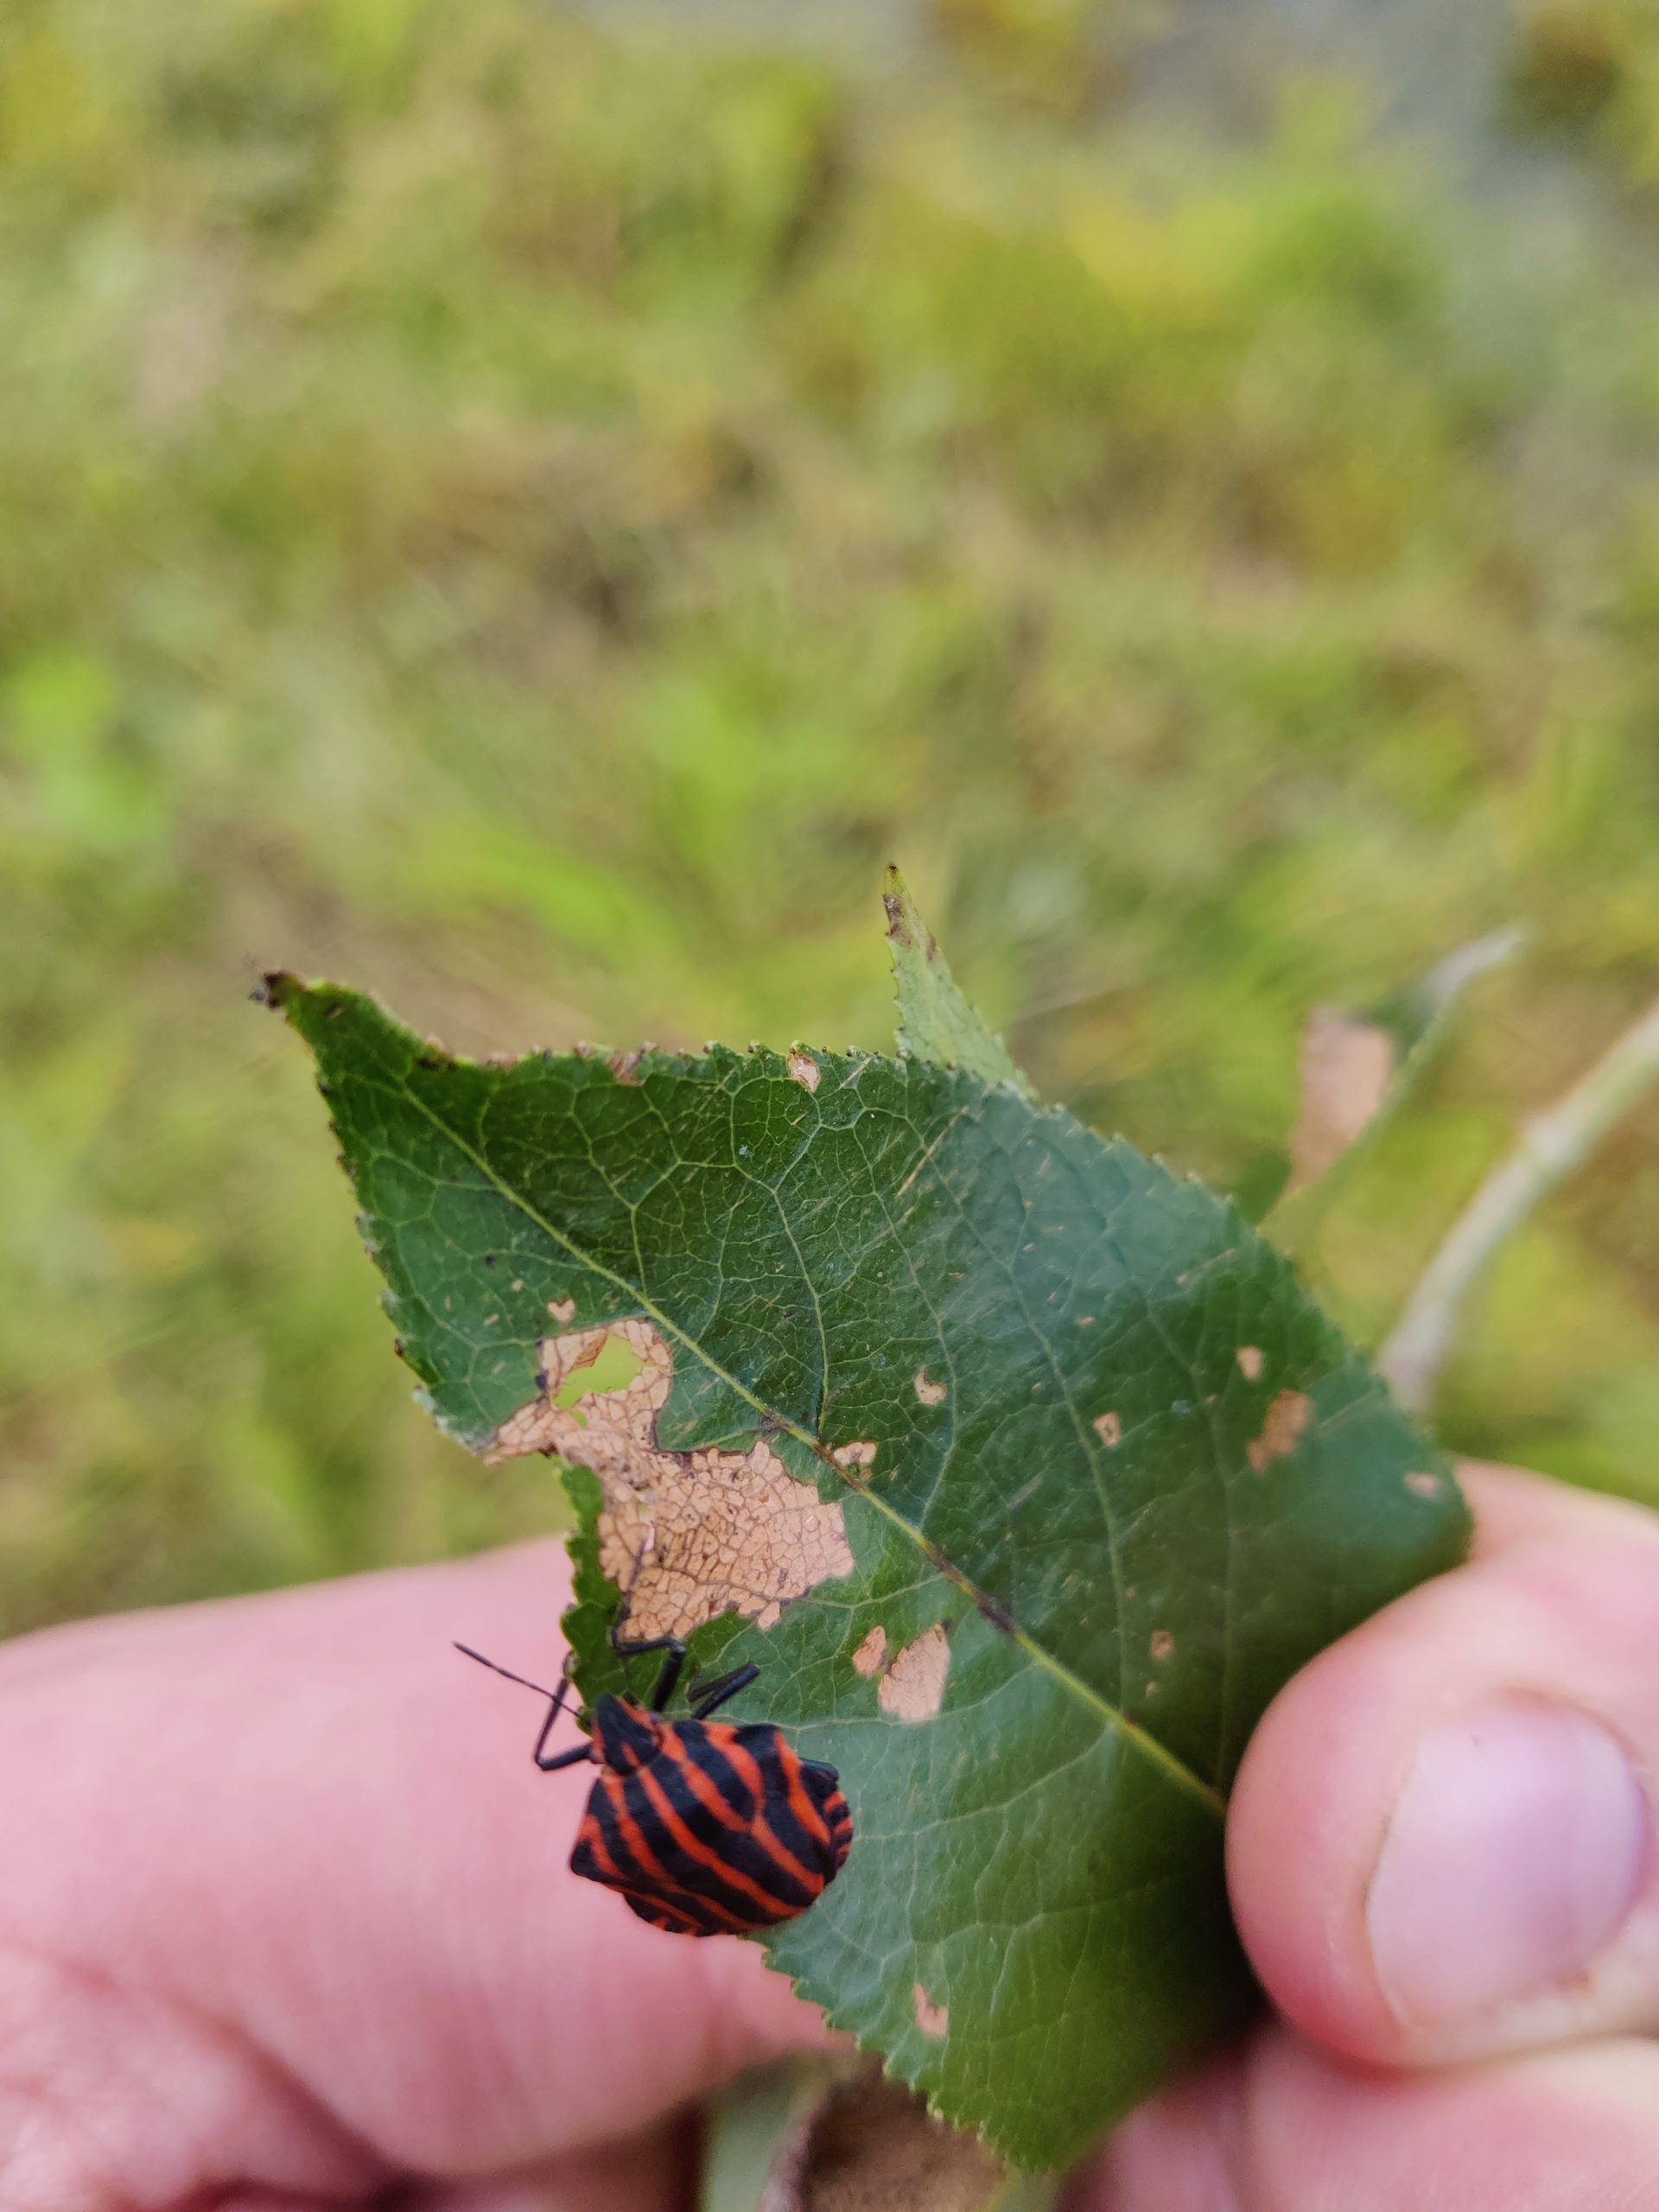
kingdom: Animalia
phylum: Arthropoda
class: Insecta
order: Hemiptera
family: Pentatomidae
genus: Graphosoma
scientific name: Graphosoma italicum
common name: Stribetæge
